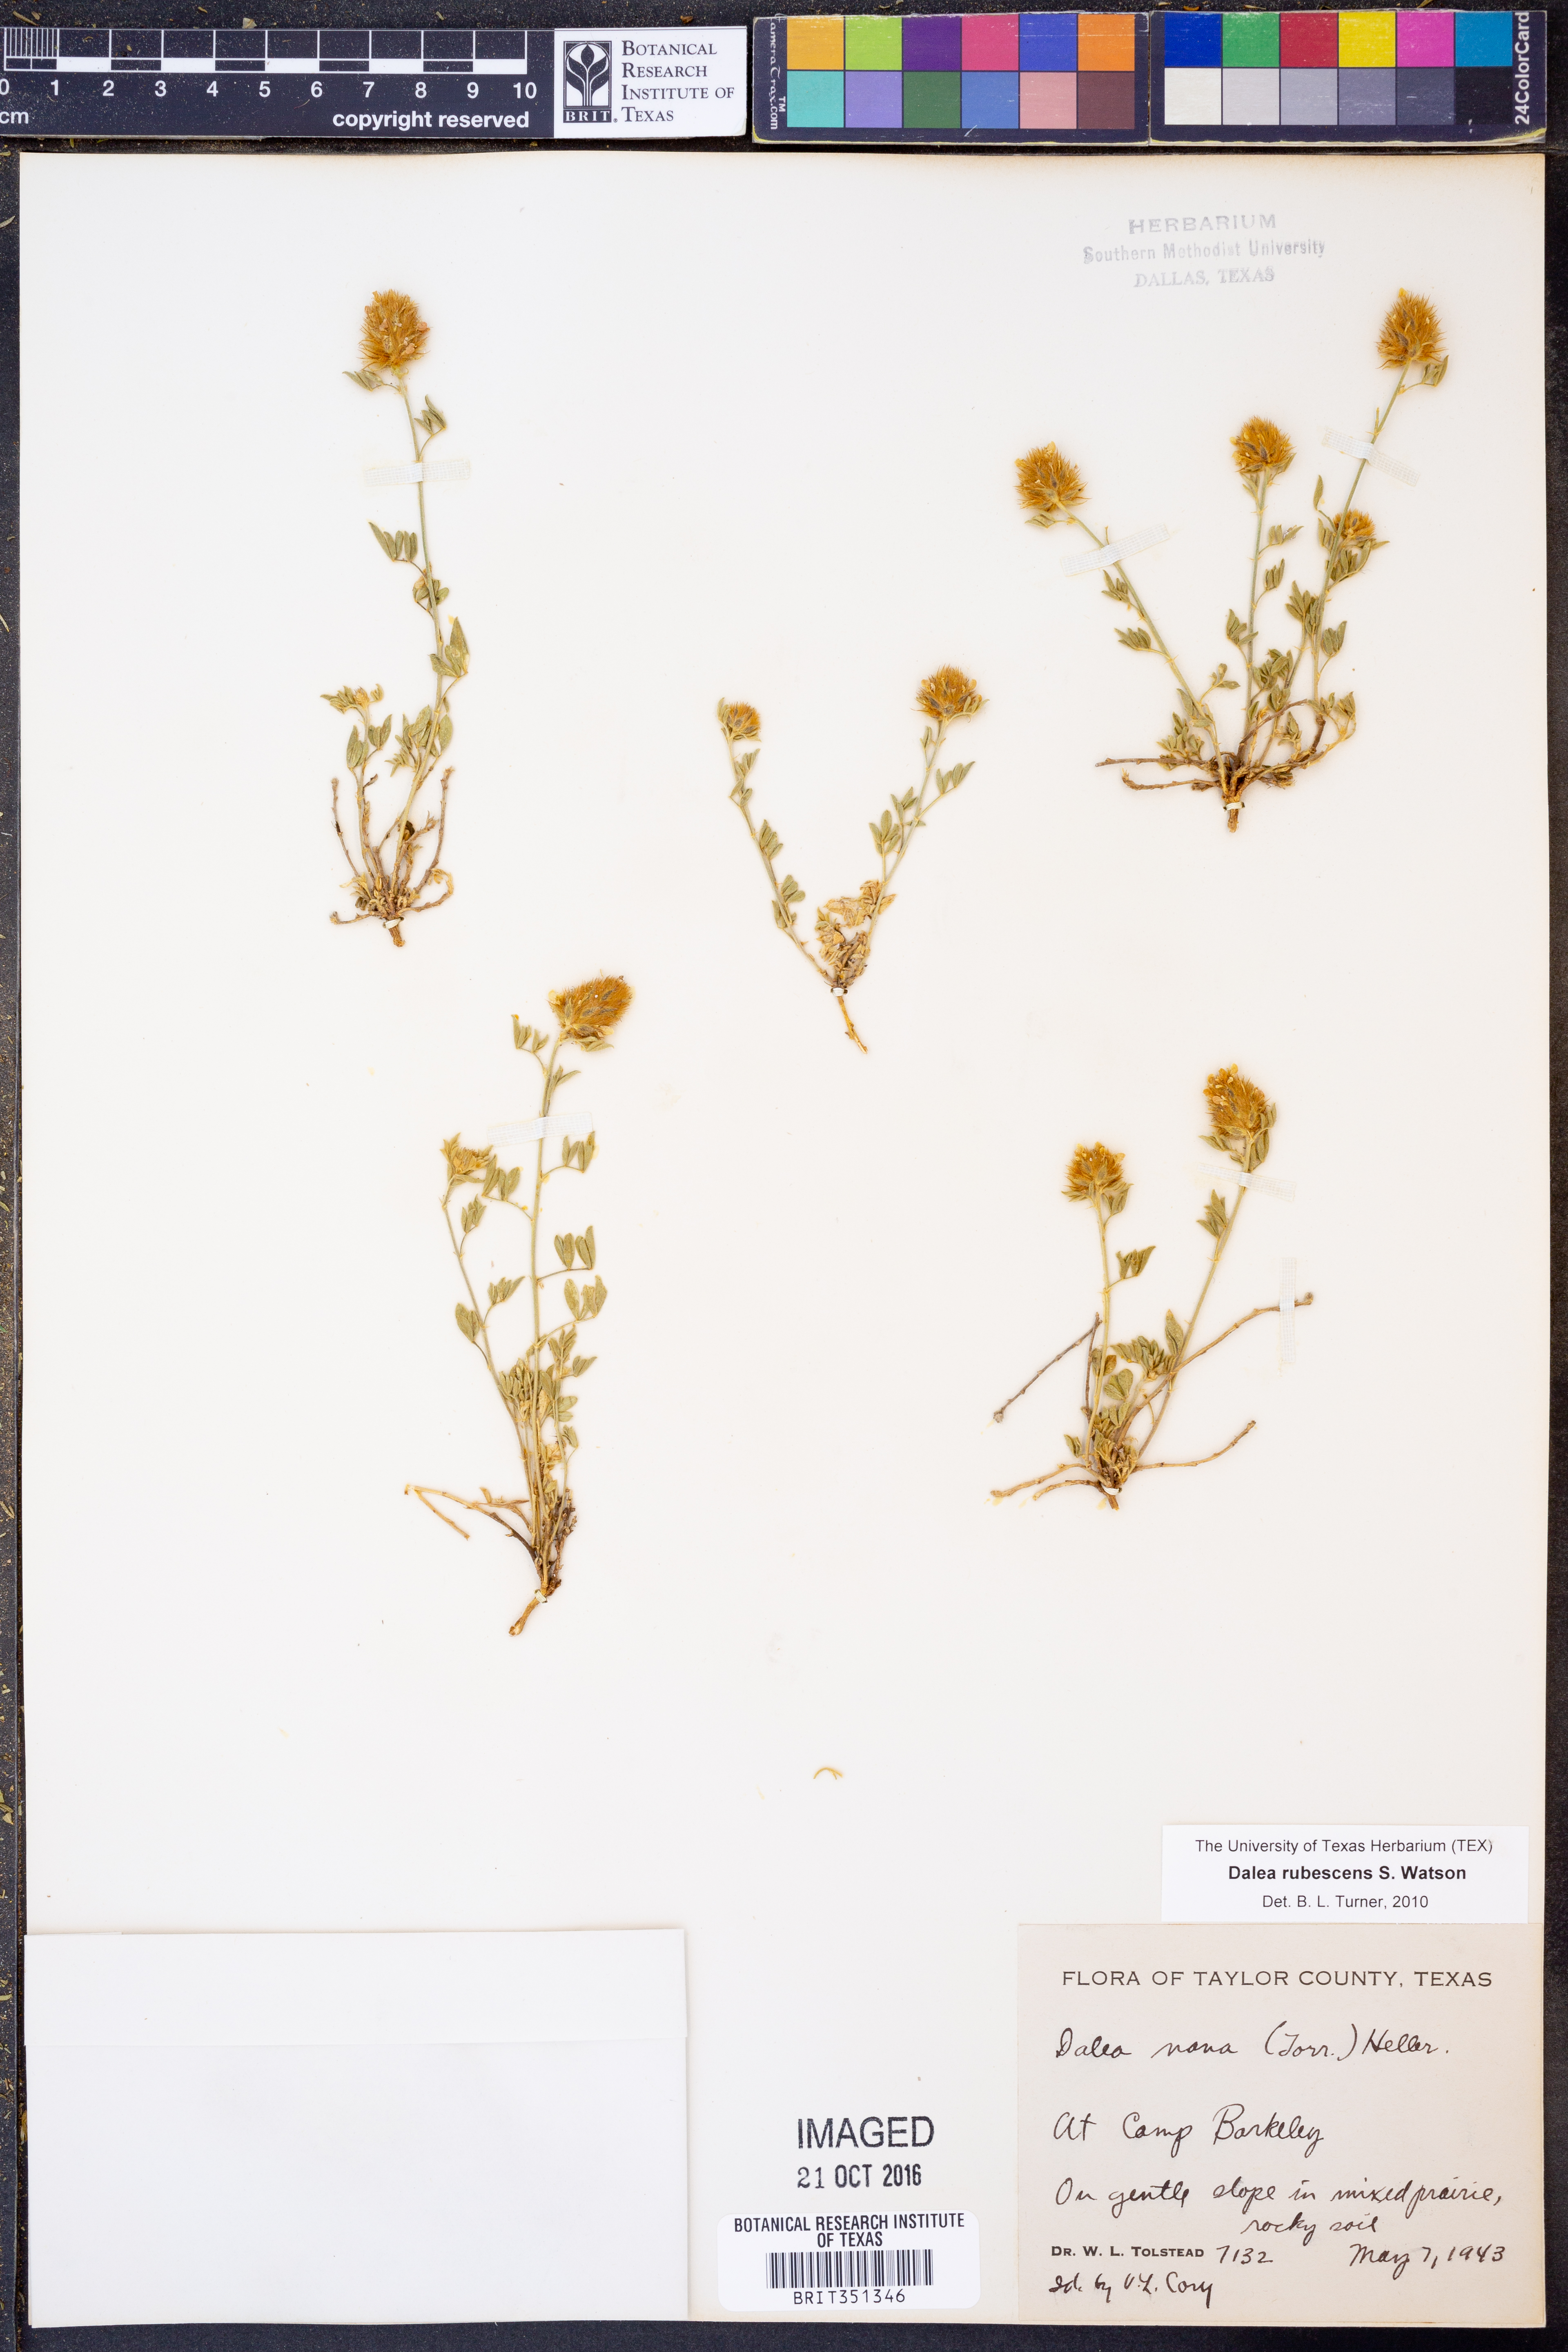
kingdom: Plantae
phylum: Tracheophyta
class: Magnoliopsida
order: Fabales
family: Fabaceae
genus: Dalea
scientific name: Dalea rubescens
